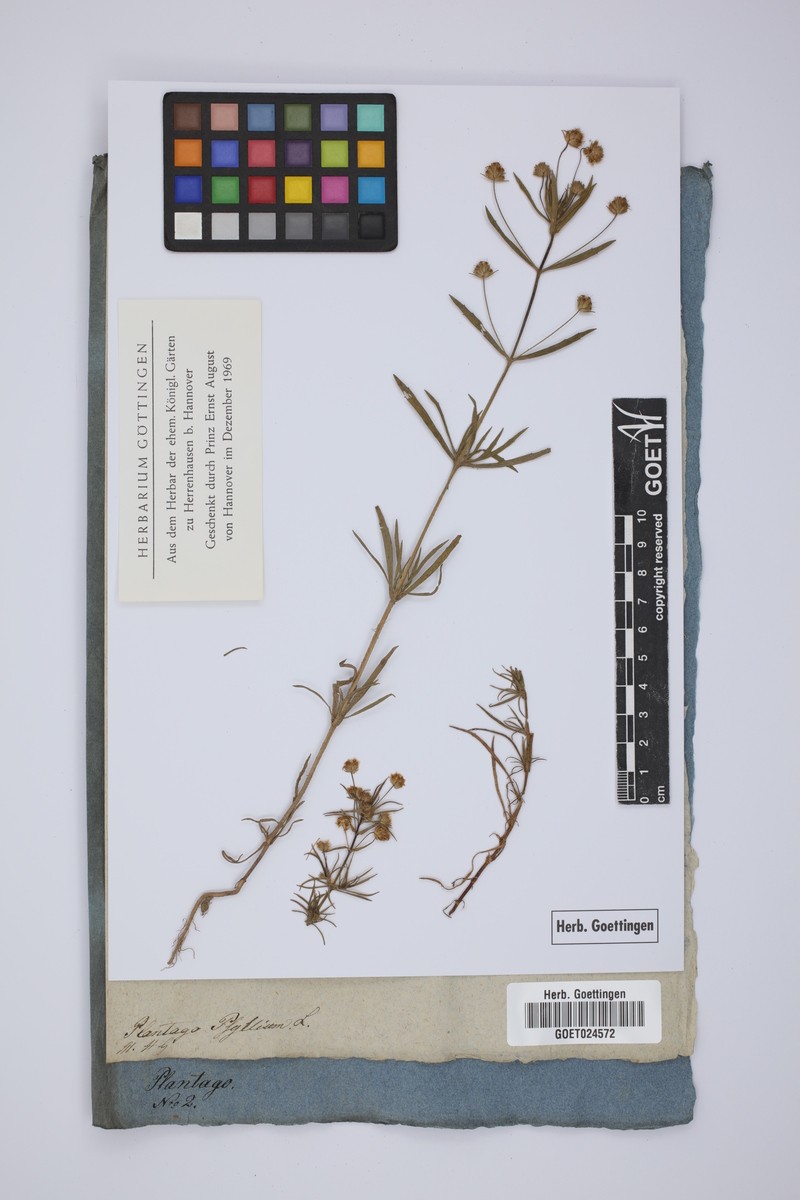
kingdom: Plantae
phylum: Tracheophyta
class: Magnoliopsida
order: Lamiales
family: Plantaginaceae
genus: Plantago
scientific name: Plantago arenaria
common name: Branched plantain
